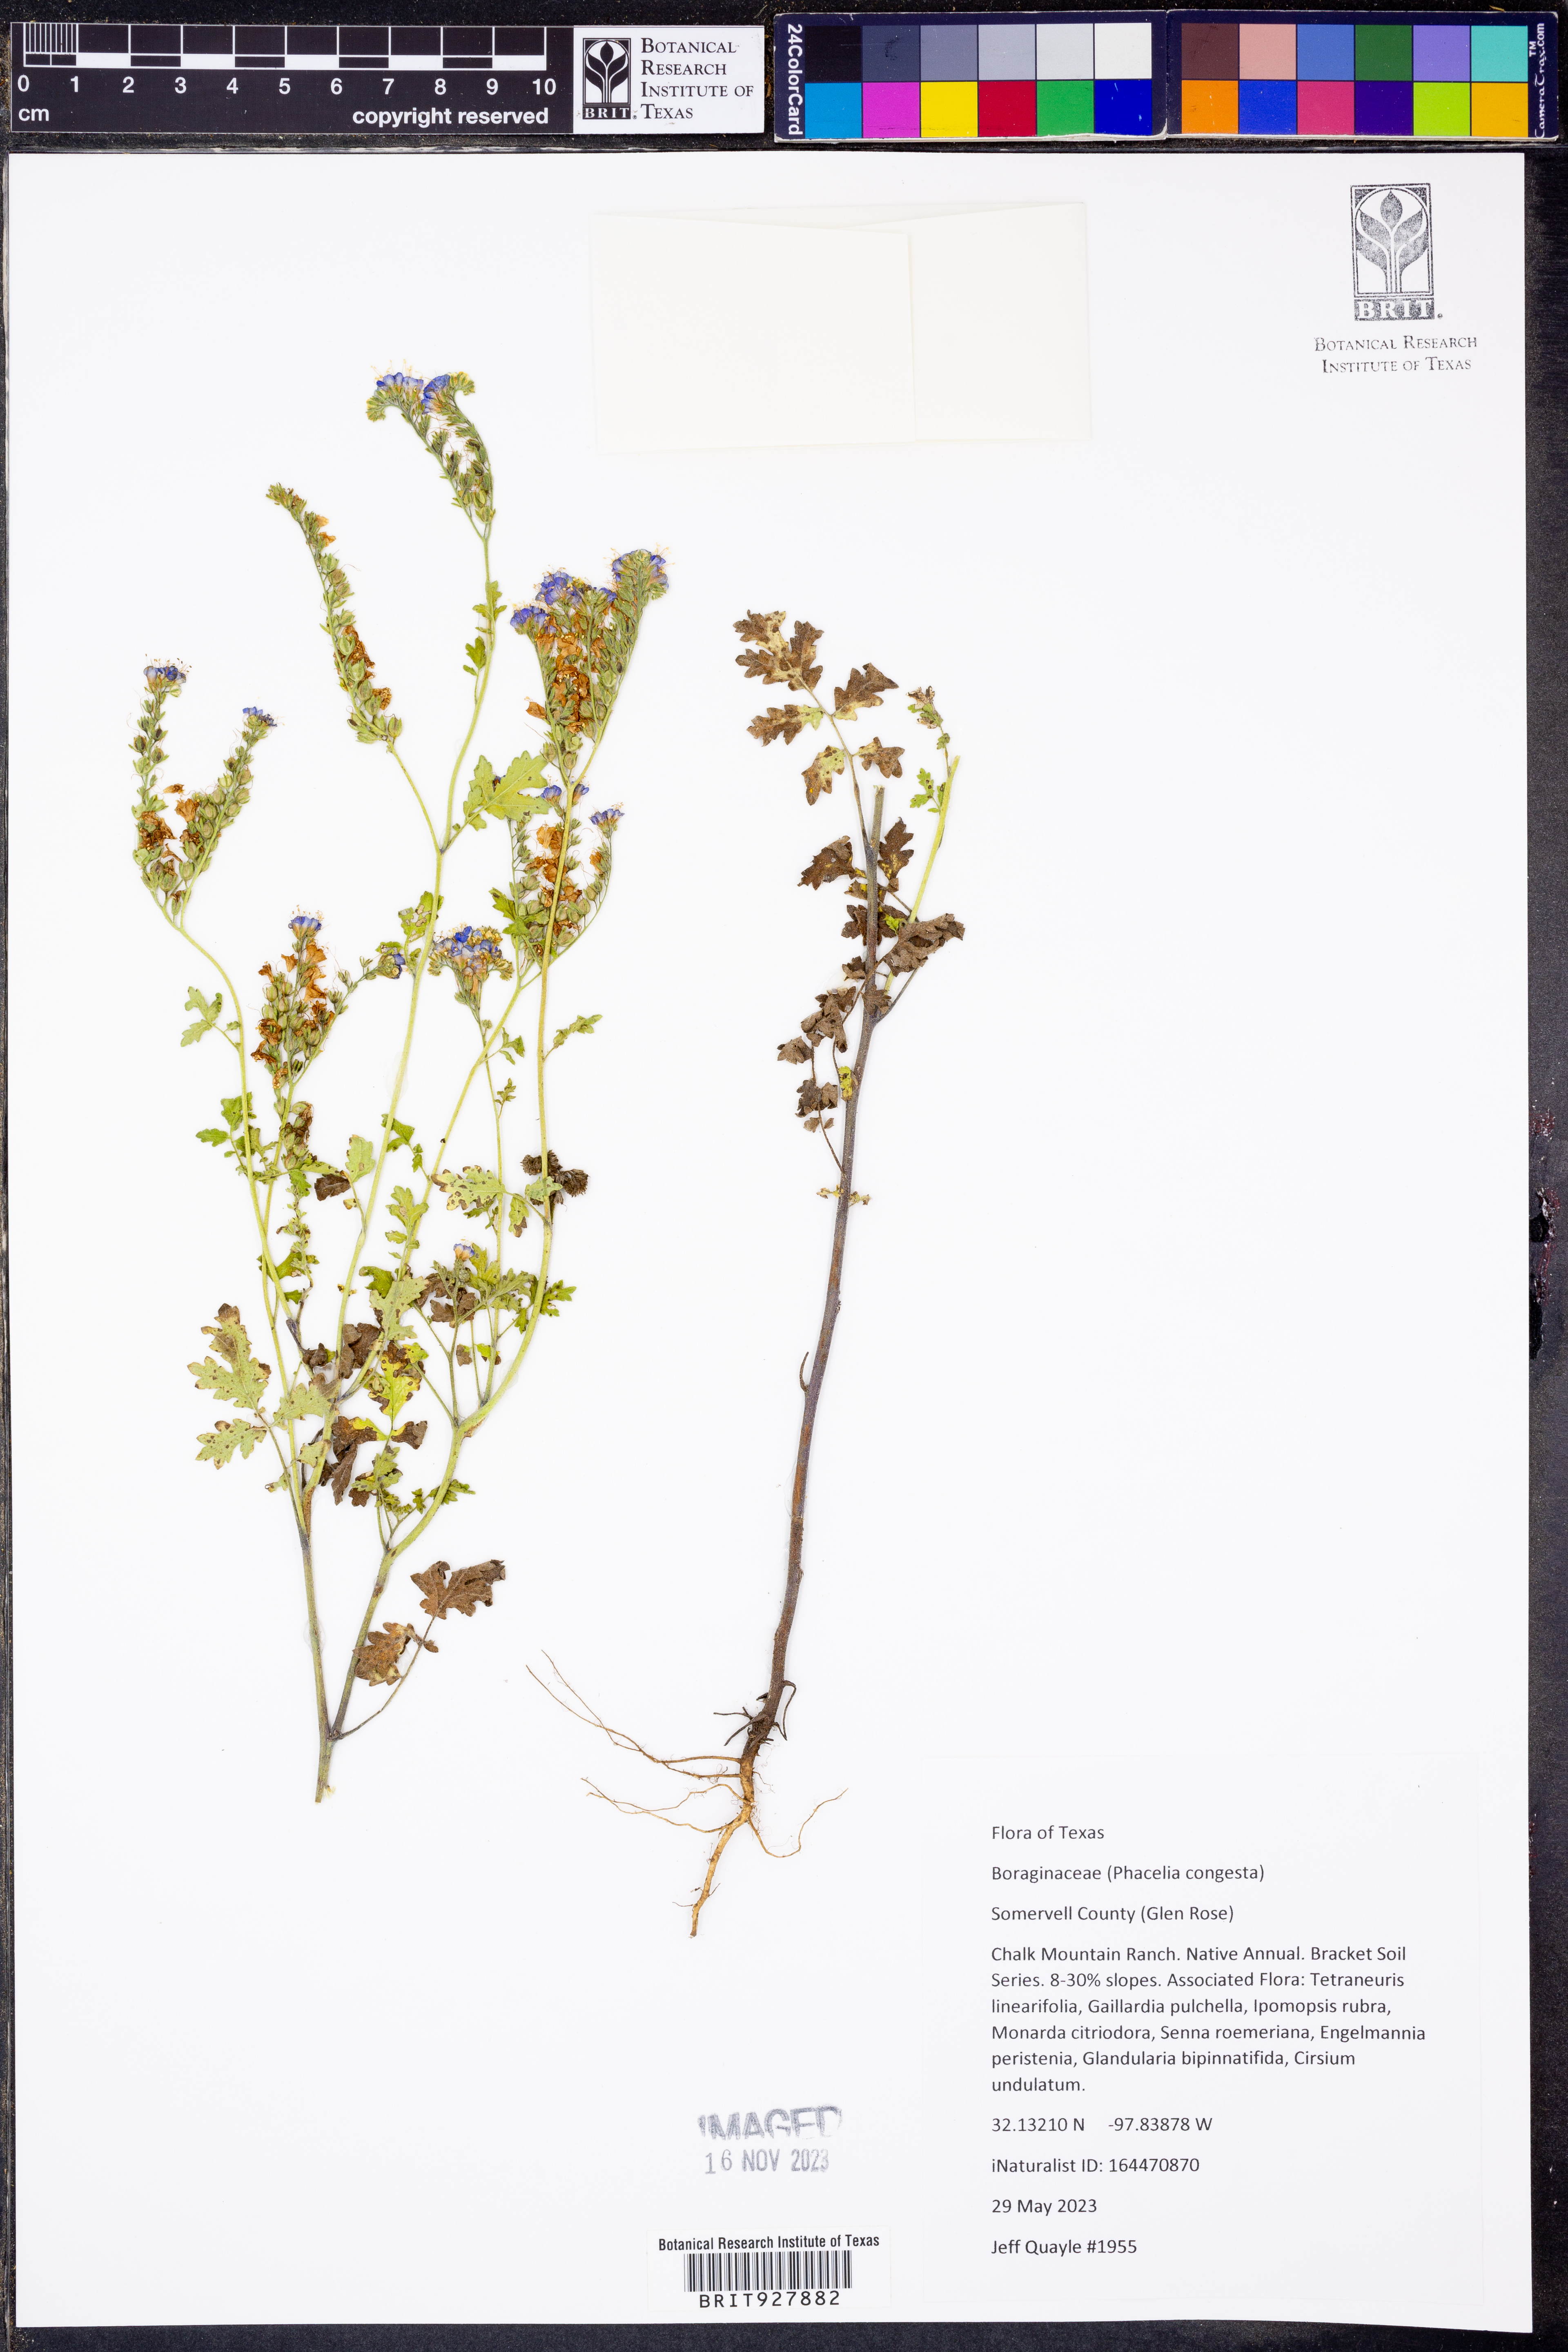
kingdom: Plantae
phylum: Tracheophyta
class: Magnoliopsida
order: Boraginales
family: Hydrophyllaceae
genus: Phacelia
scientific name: Phacelia congesta
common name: Blue curls
